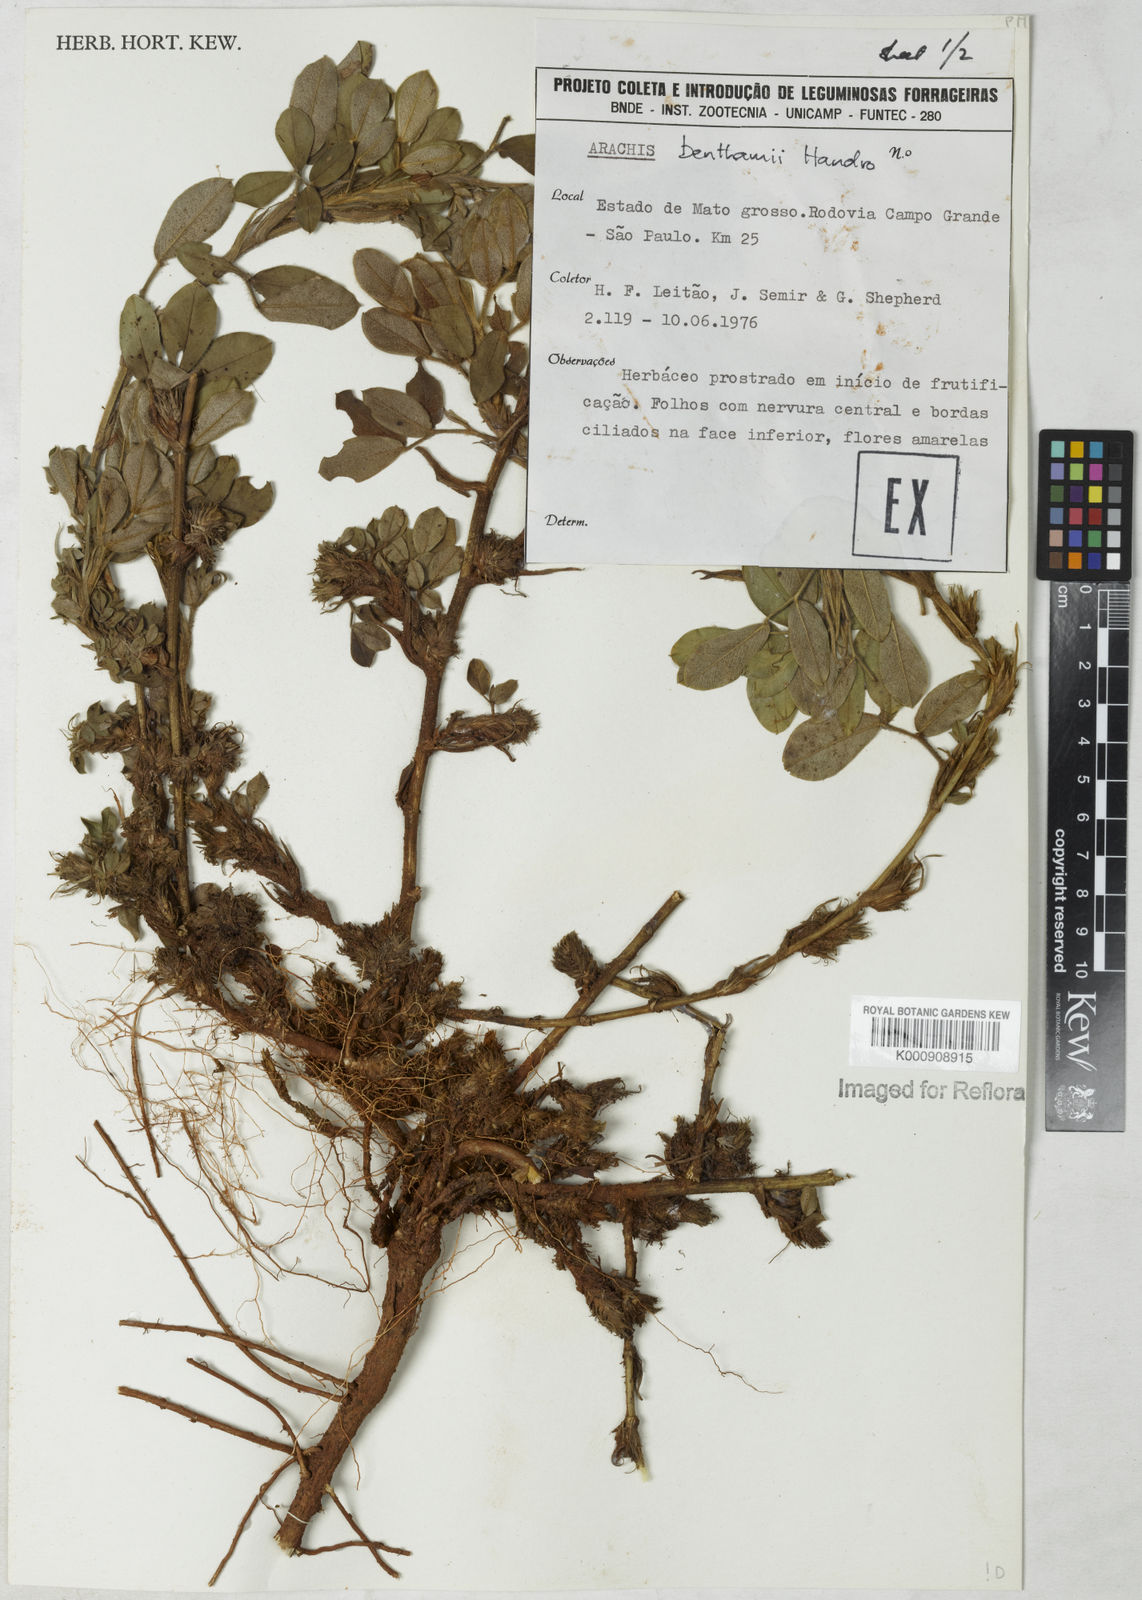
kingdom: Plantae
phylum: Tracheophyta
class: Magnoliopsida
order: Fabales
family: Fabaceae
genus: Arachis
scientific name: Arachis benthamii
